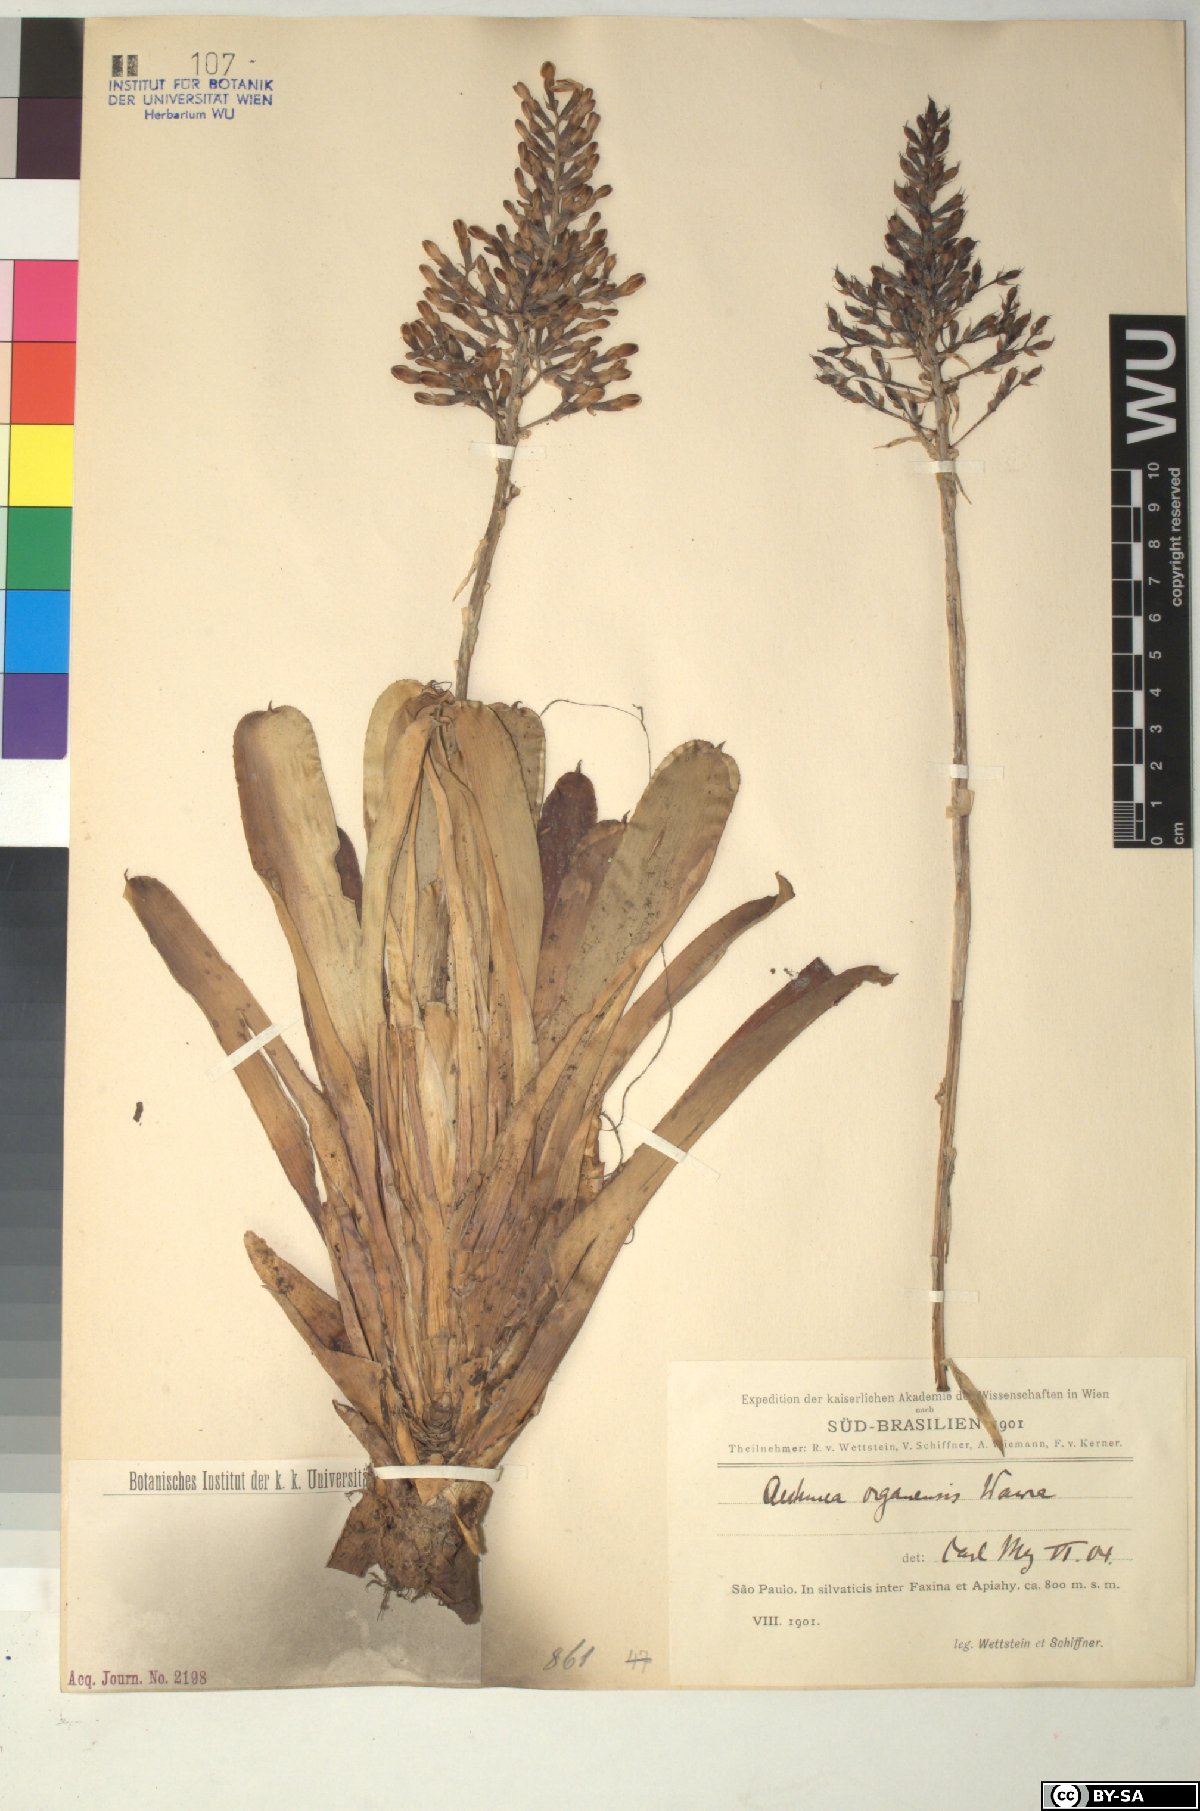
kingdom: Plantae
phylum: Tracheophyta
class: Liliopsida
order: Poales
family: Bromeliaceae
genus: Aechmea
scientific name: Aechmea
